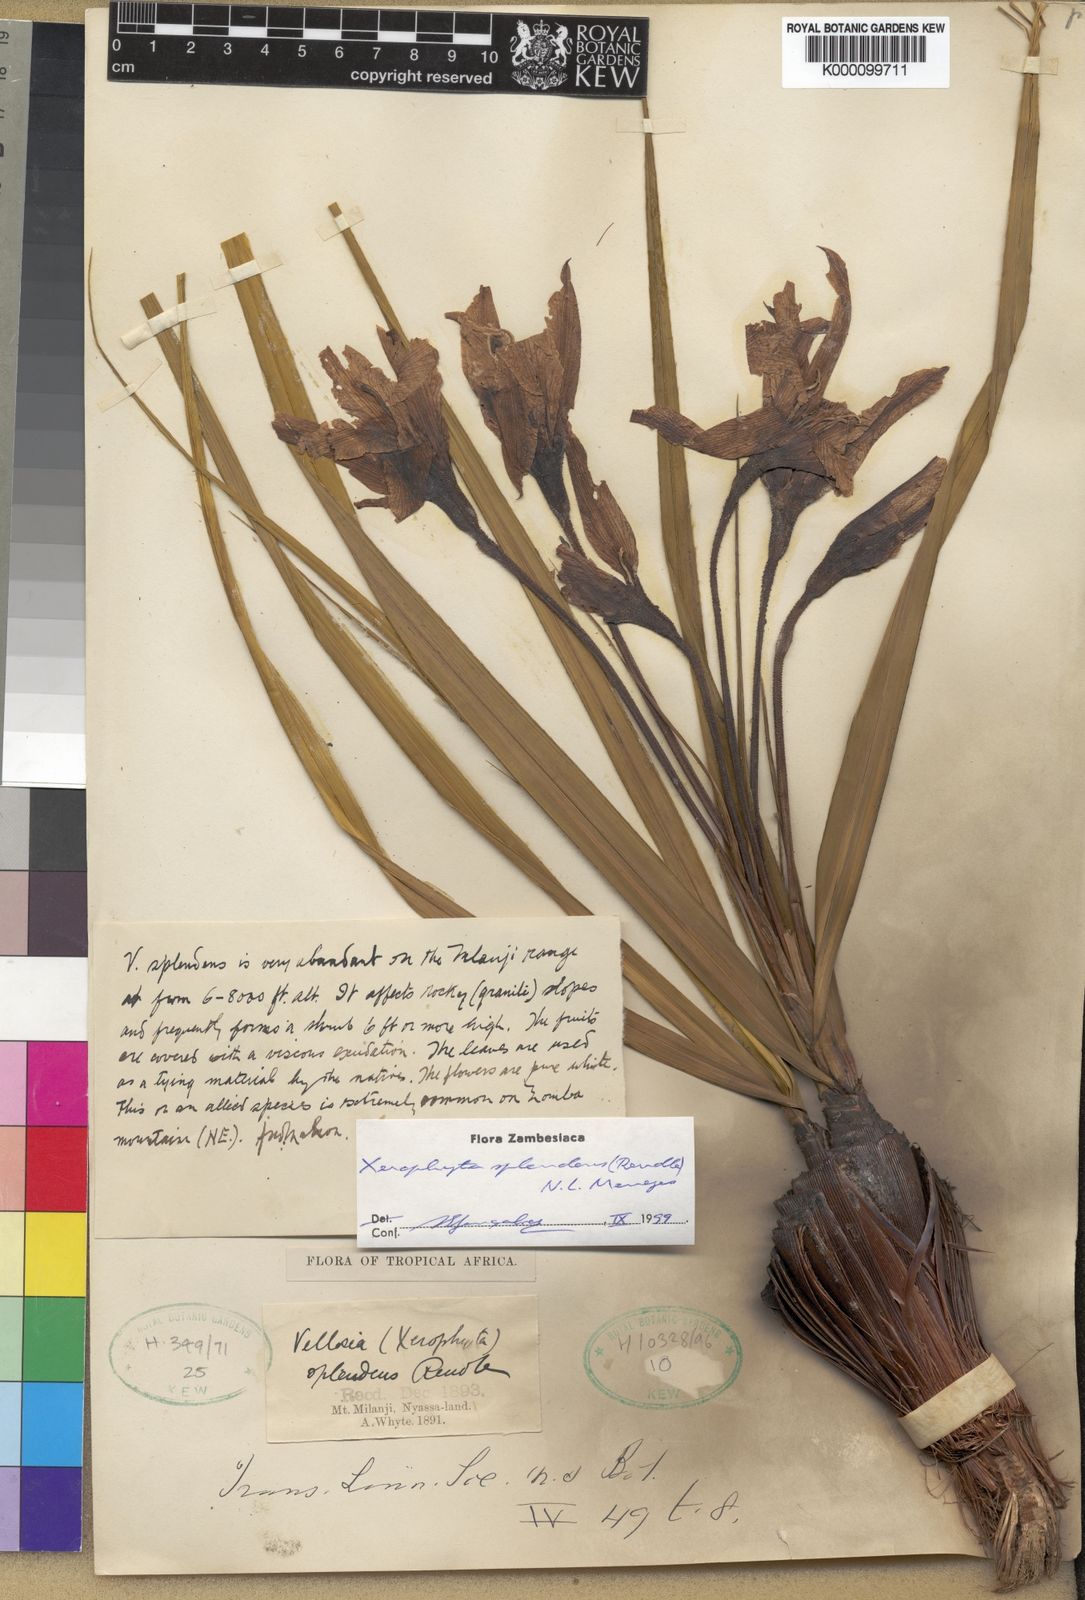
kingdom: Plantae
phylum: Tracheophyta
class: Liliopsida
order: Pandanales
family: Velloziaceae
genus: Xerophyta
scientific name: Xerophyta splendens
